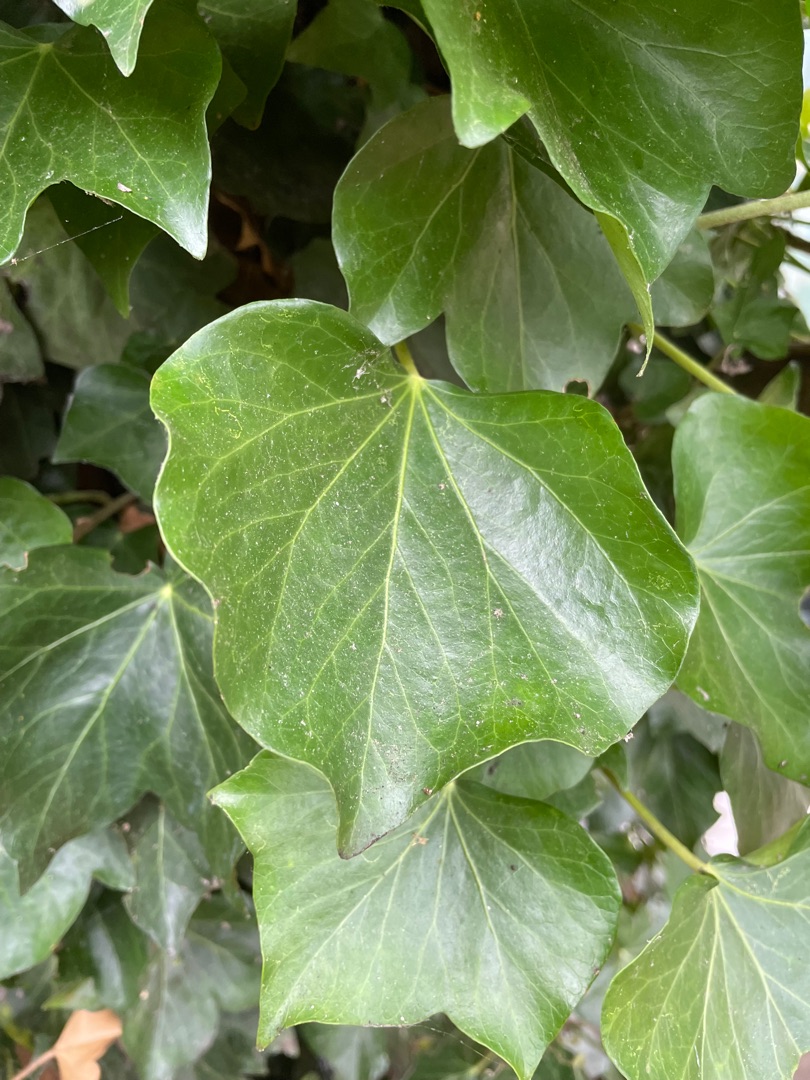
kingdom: Plantae
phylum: Tracheophyta
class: Magnoliopsida
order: Apiales
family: Araliaceae
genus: Hedera
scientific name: Hedera helix
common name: Vedbend
